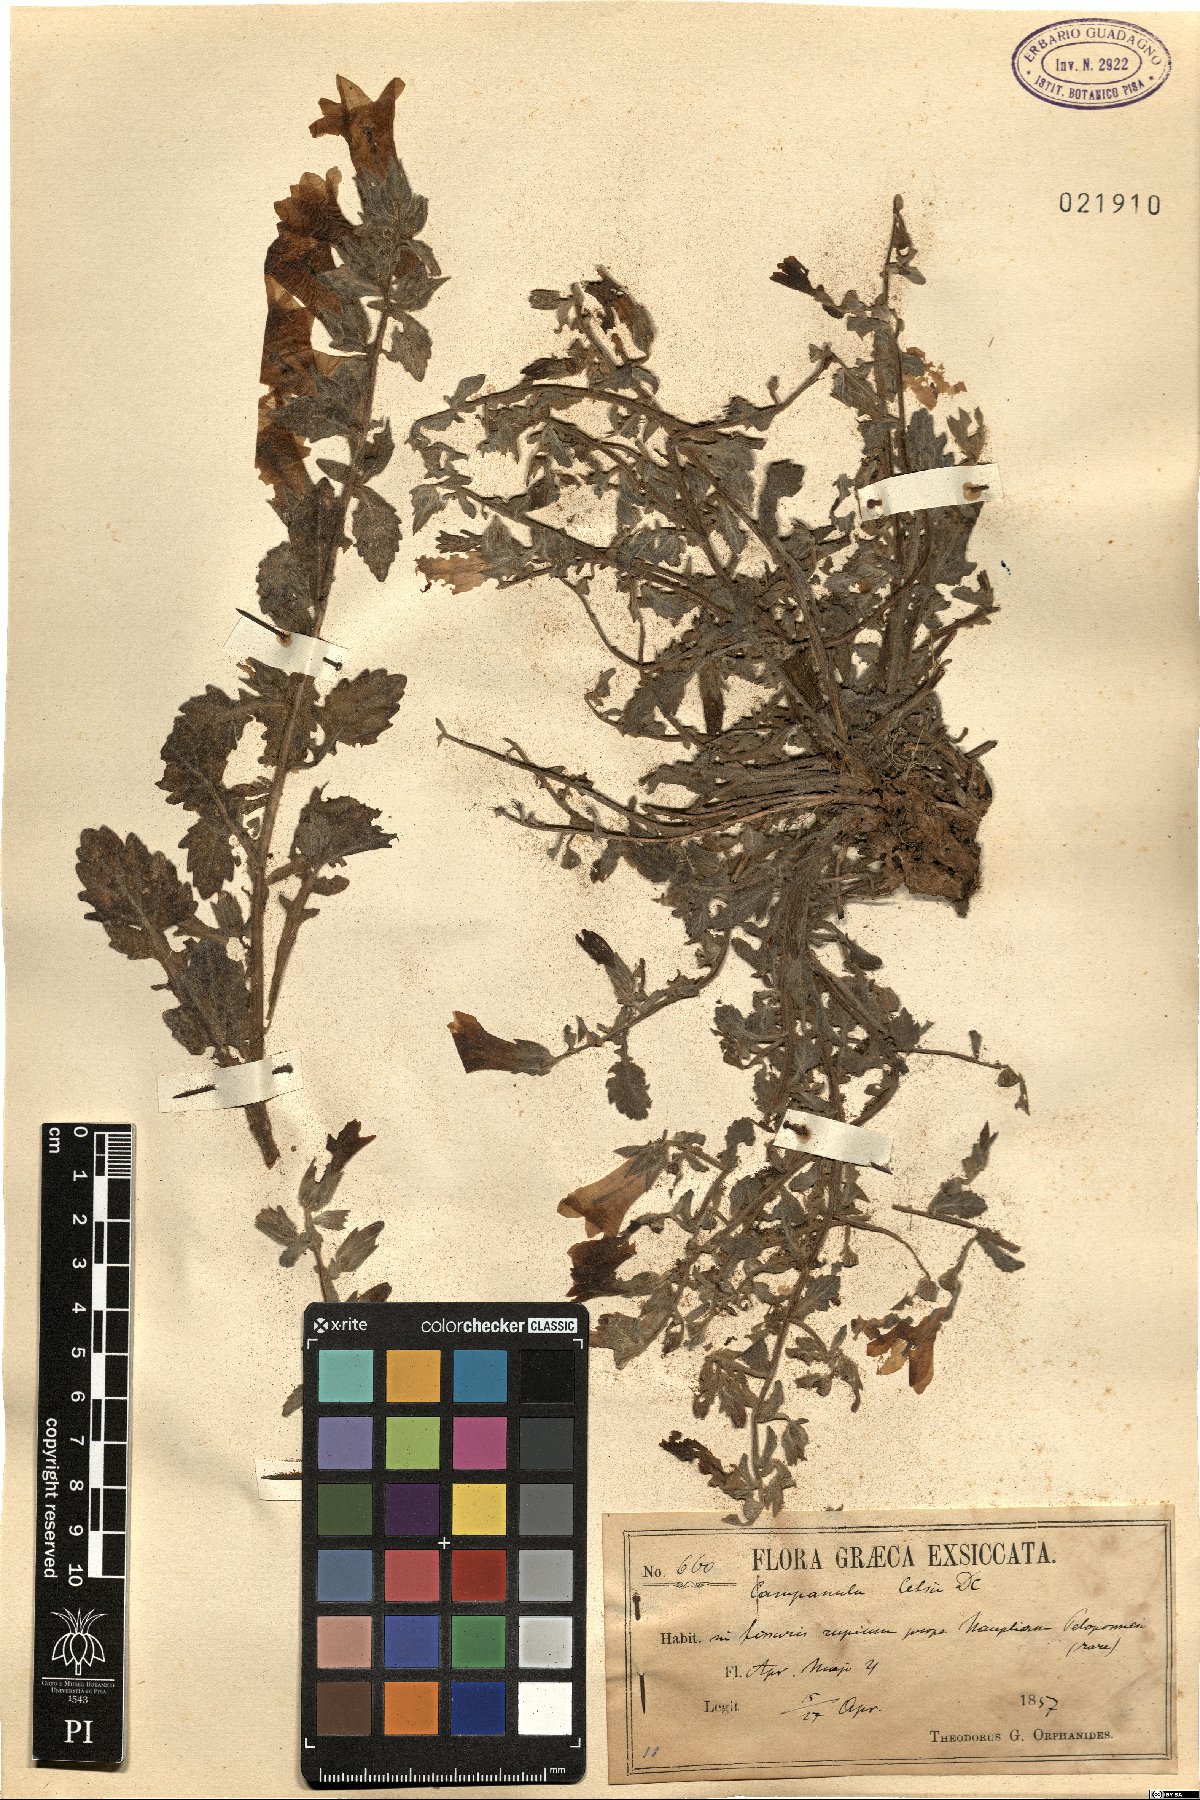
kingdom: Plantae
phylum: Tracheophyta
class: Magnoliopsida
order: Asterales
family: Campanulaceae
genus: Campanula
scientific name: Campanula celsii
